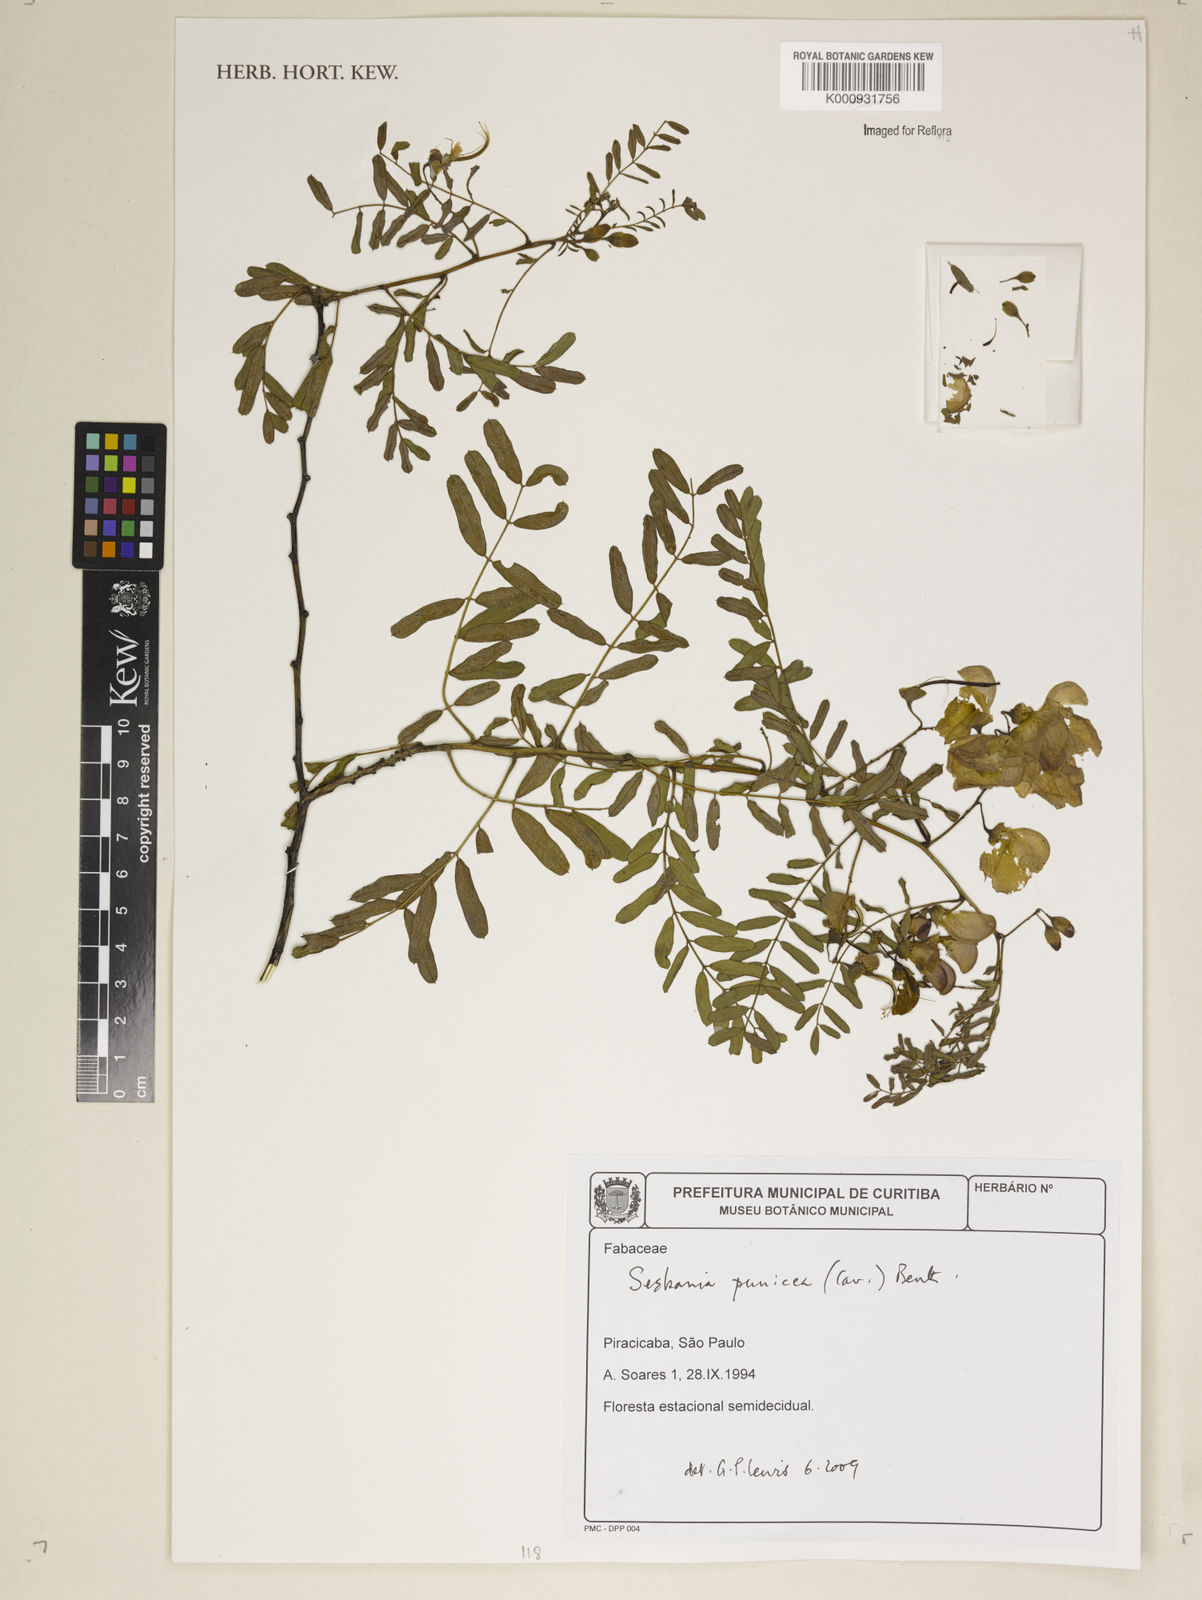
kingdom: Plantae
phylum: Tracheophyta
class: Magnoliopsida
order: Fabales
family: Fabaceae
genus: Sesbania
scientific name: Sesbania punicea
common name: Rattlebox
